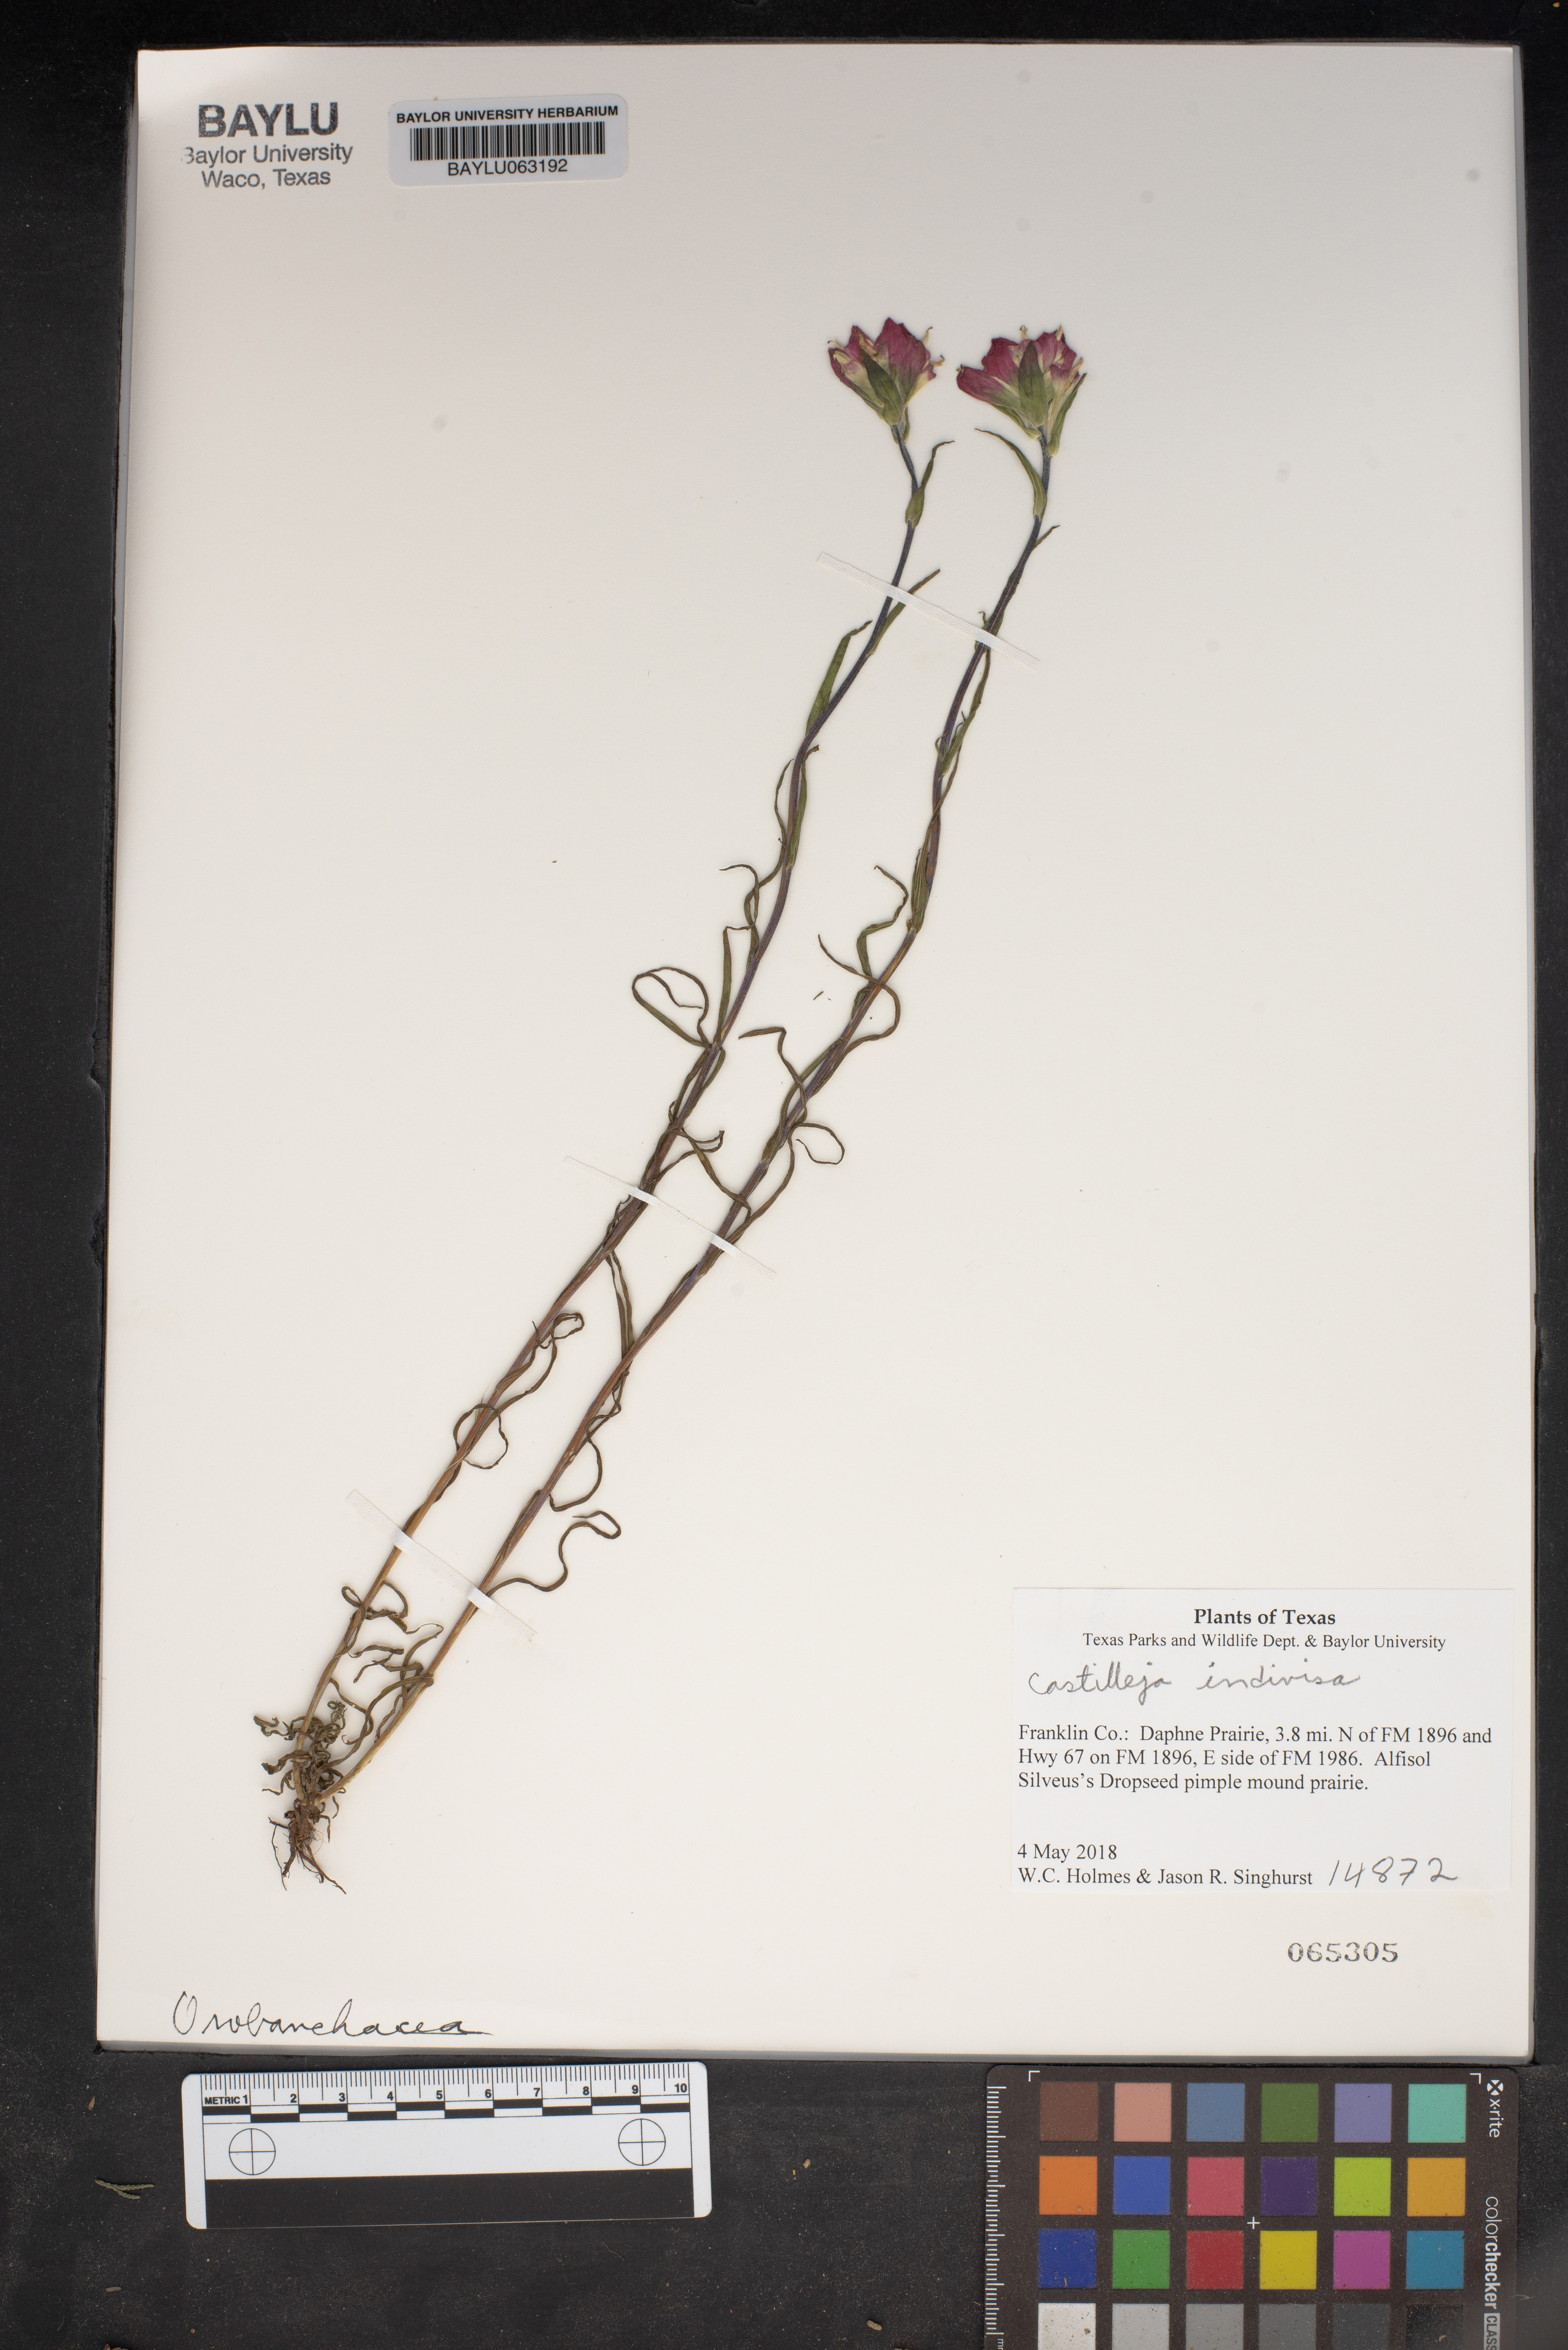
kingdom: Plantae
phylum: Tracheophyta
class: Magnoliopsida
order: Lamiales
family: Orobanchaceae
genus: Castilleja
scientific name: Castilleja indivisa
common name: Texas paintbrush
